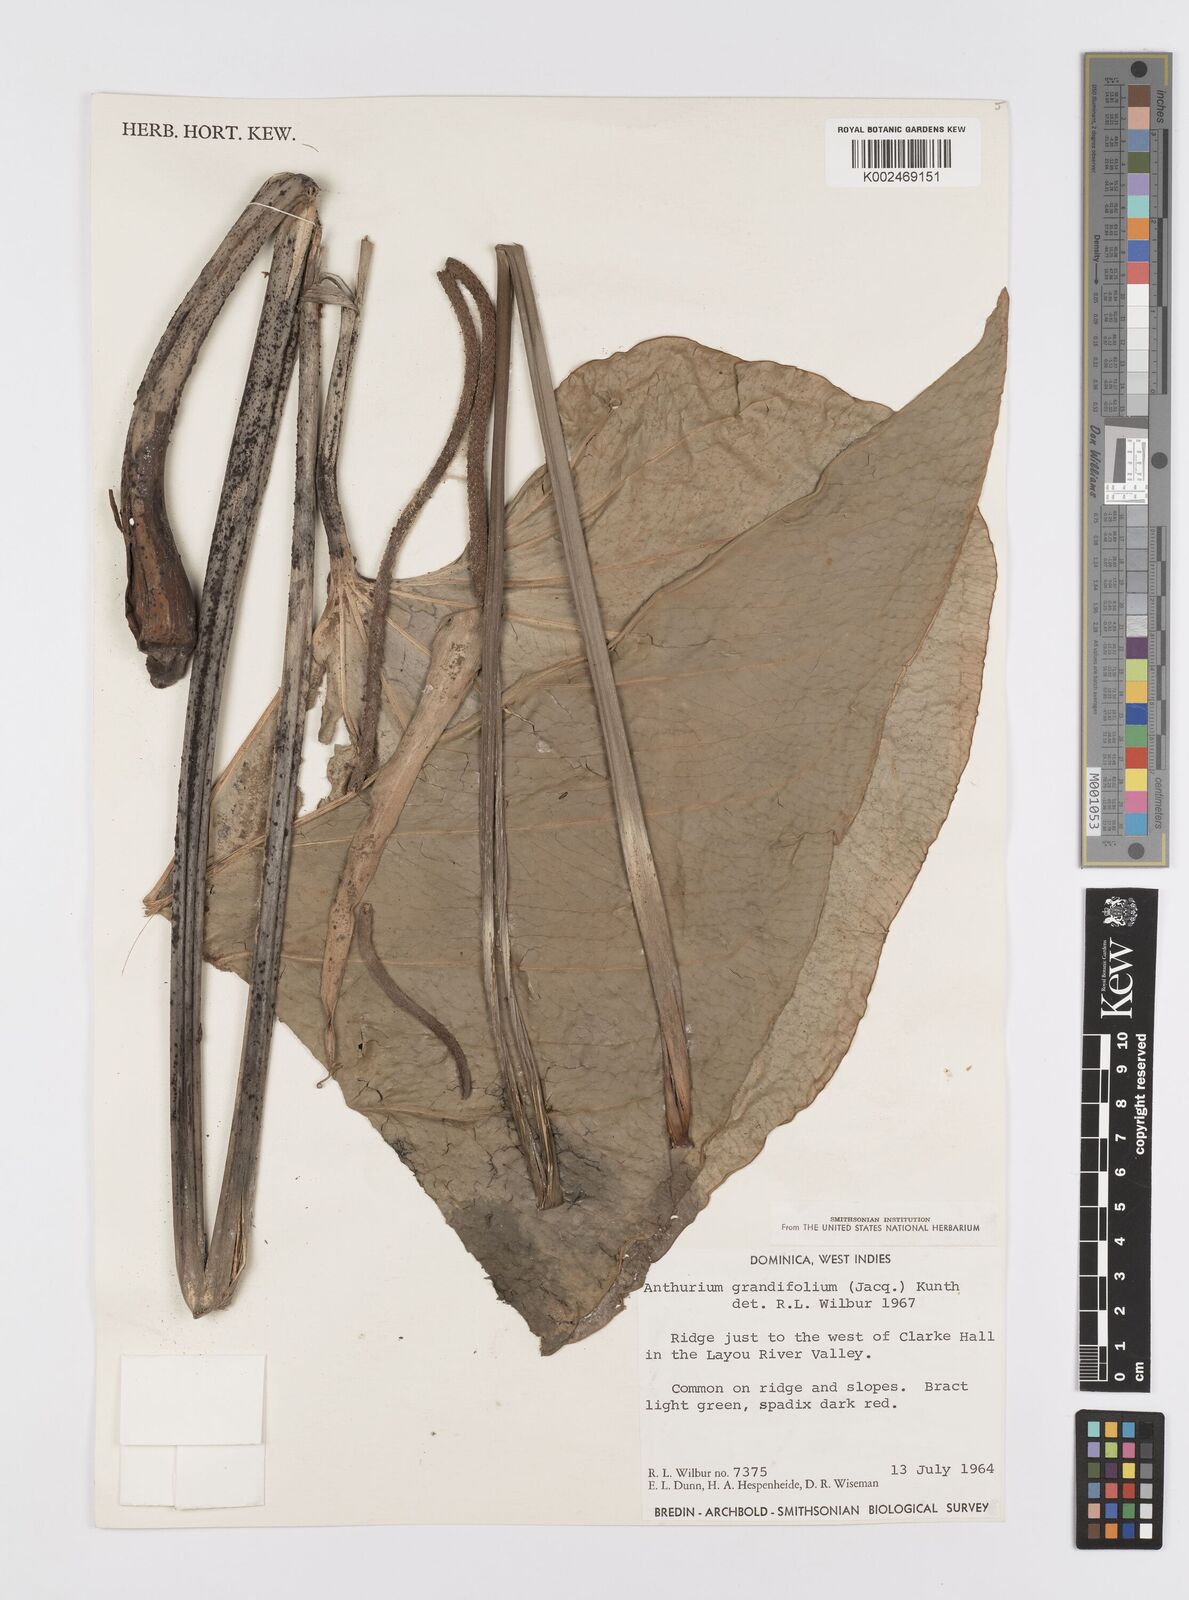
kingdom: Plantae
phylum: Tracheophyta
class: Liliopsida
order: Alismatales
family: Araceae
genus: Anthurium
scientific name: Anthurium grandifolium
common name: Monkey tail
